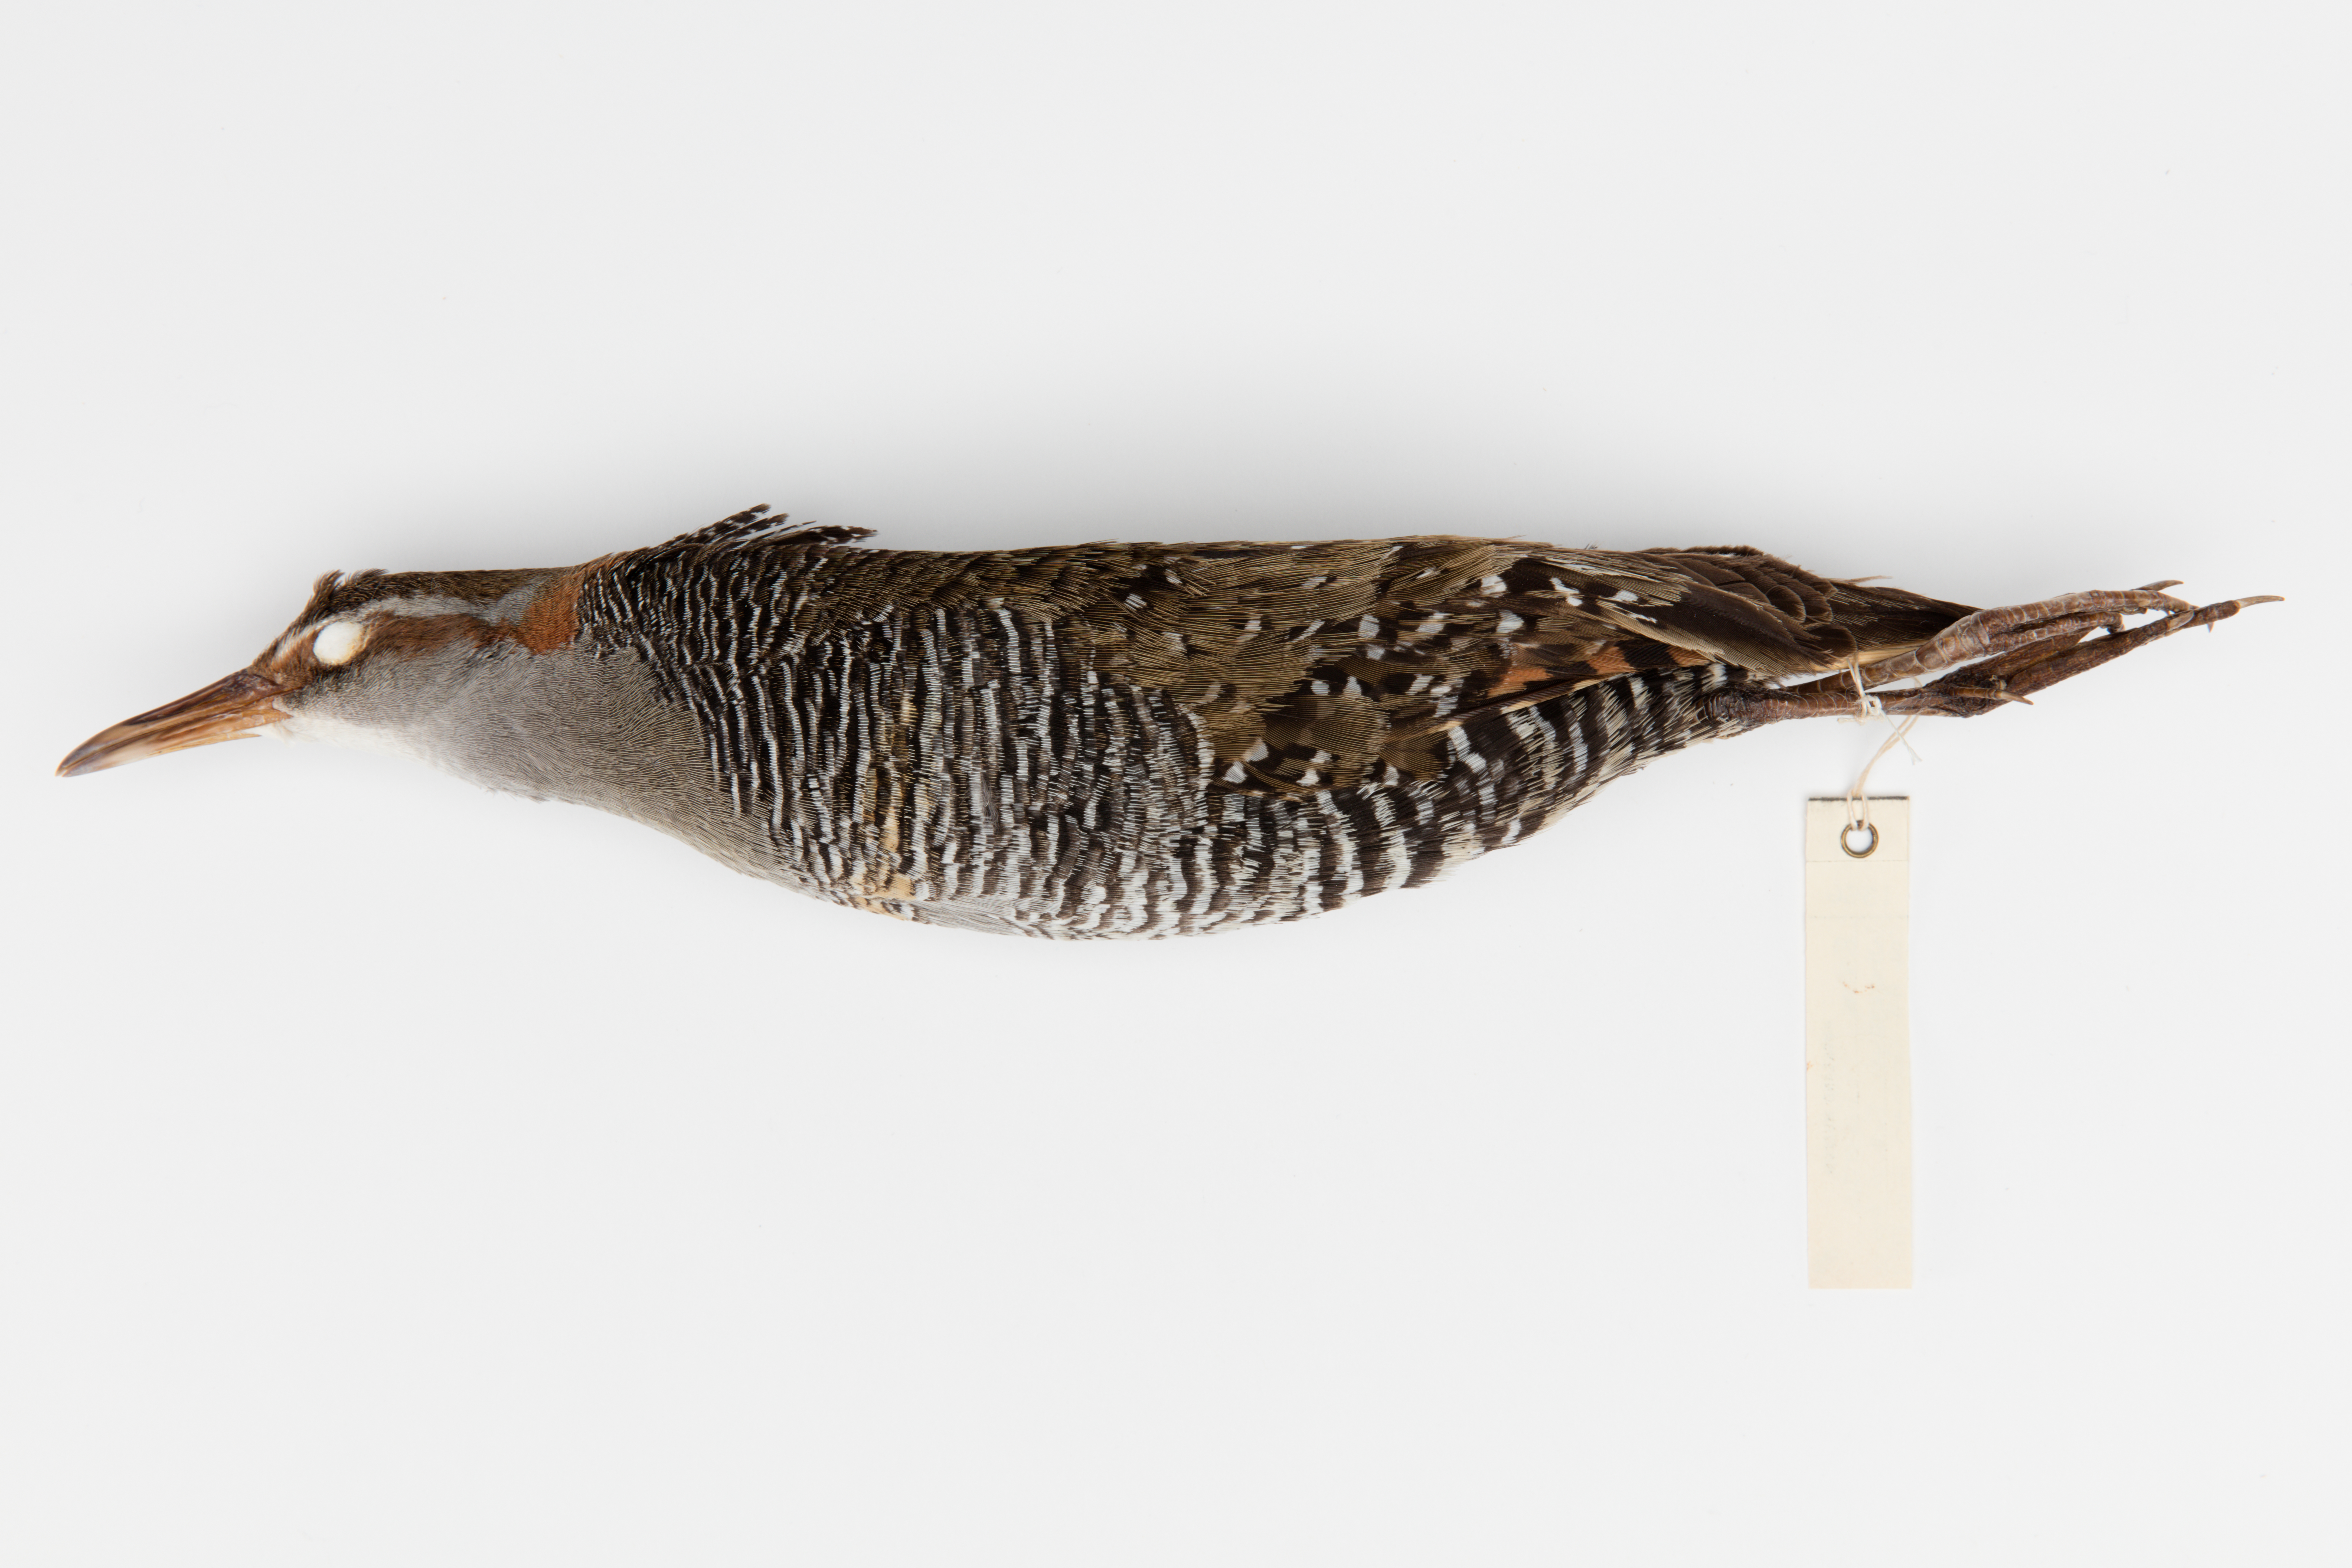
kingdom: Animalia
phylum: Chordata
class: Aves
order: Gruiformes
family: Rallidae
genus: Gallirallus
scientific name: Gallirallus philippensis
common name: Buff-banded rail
